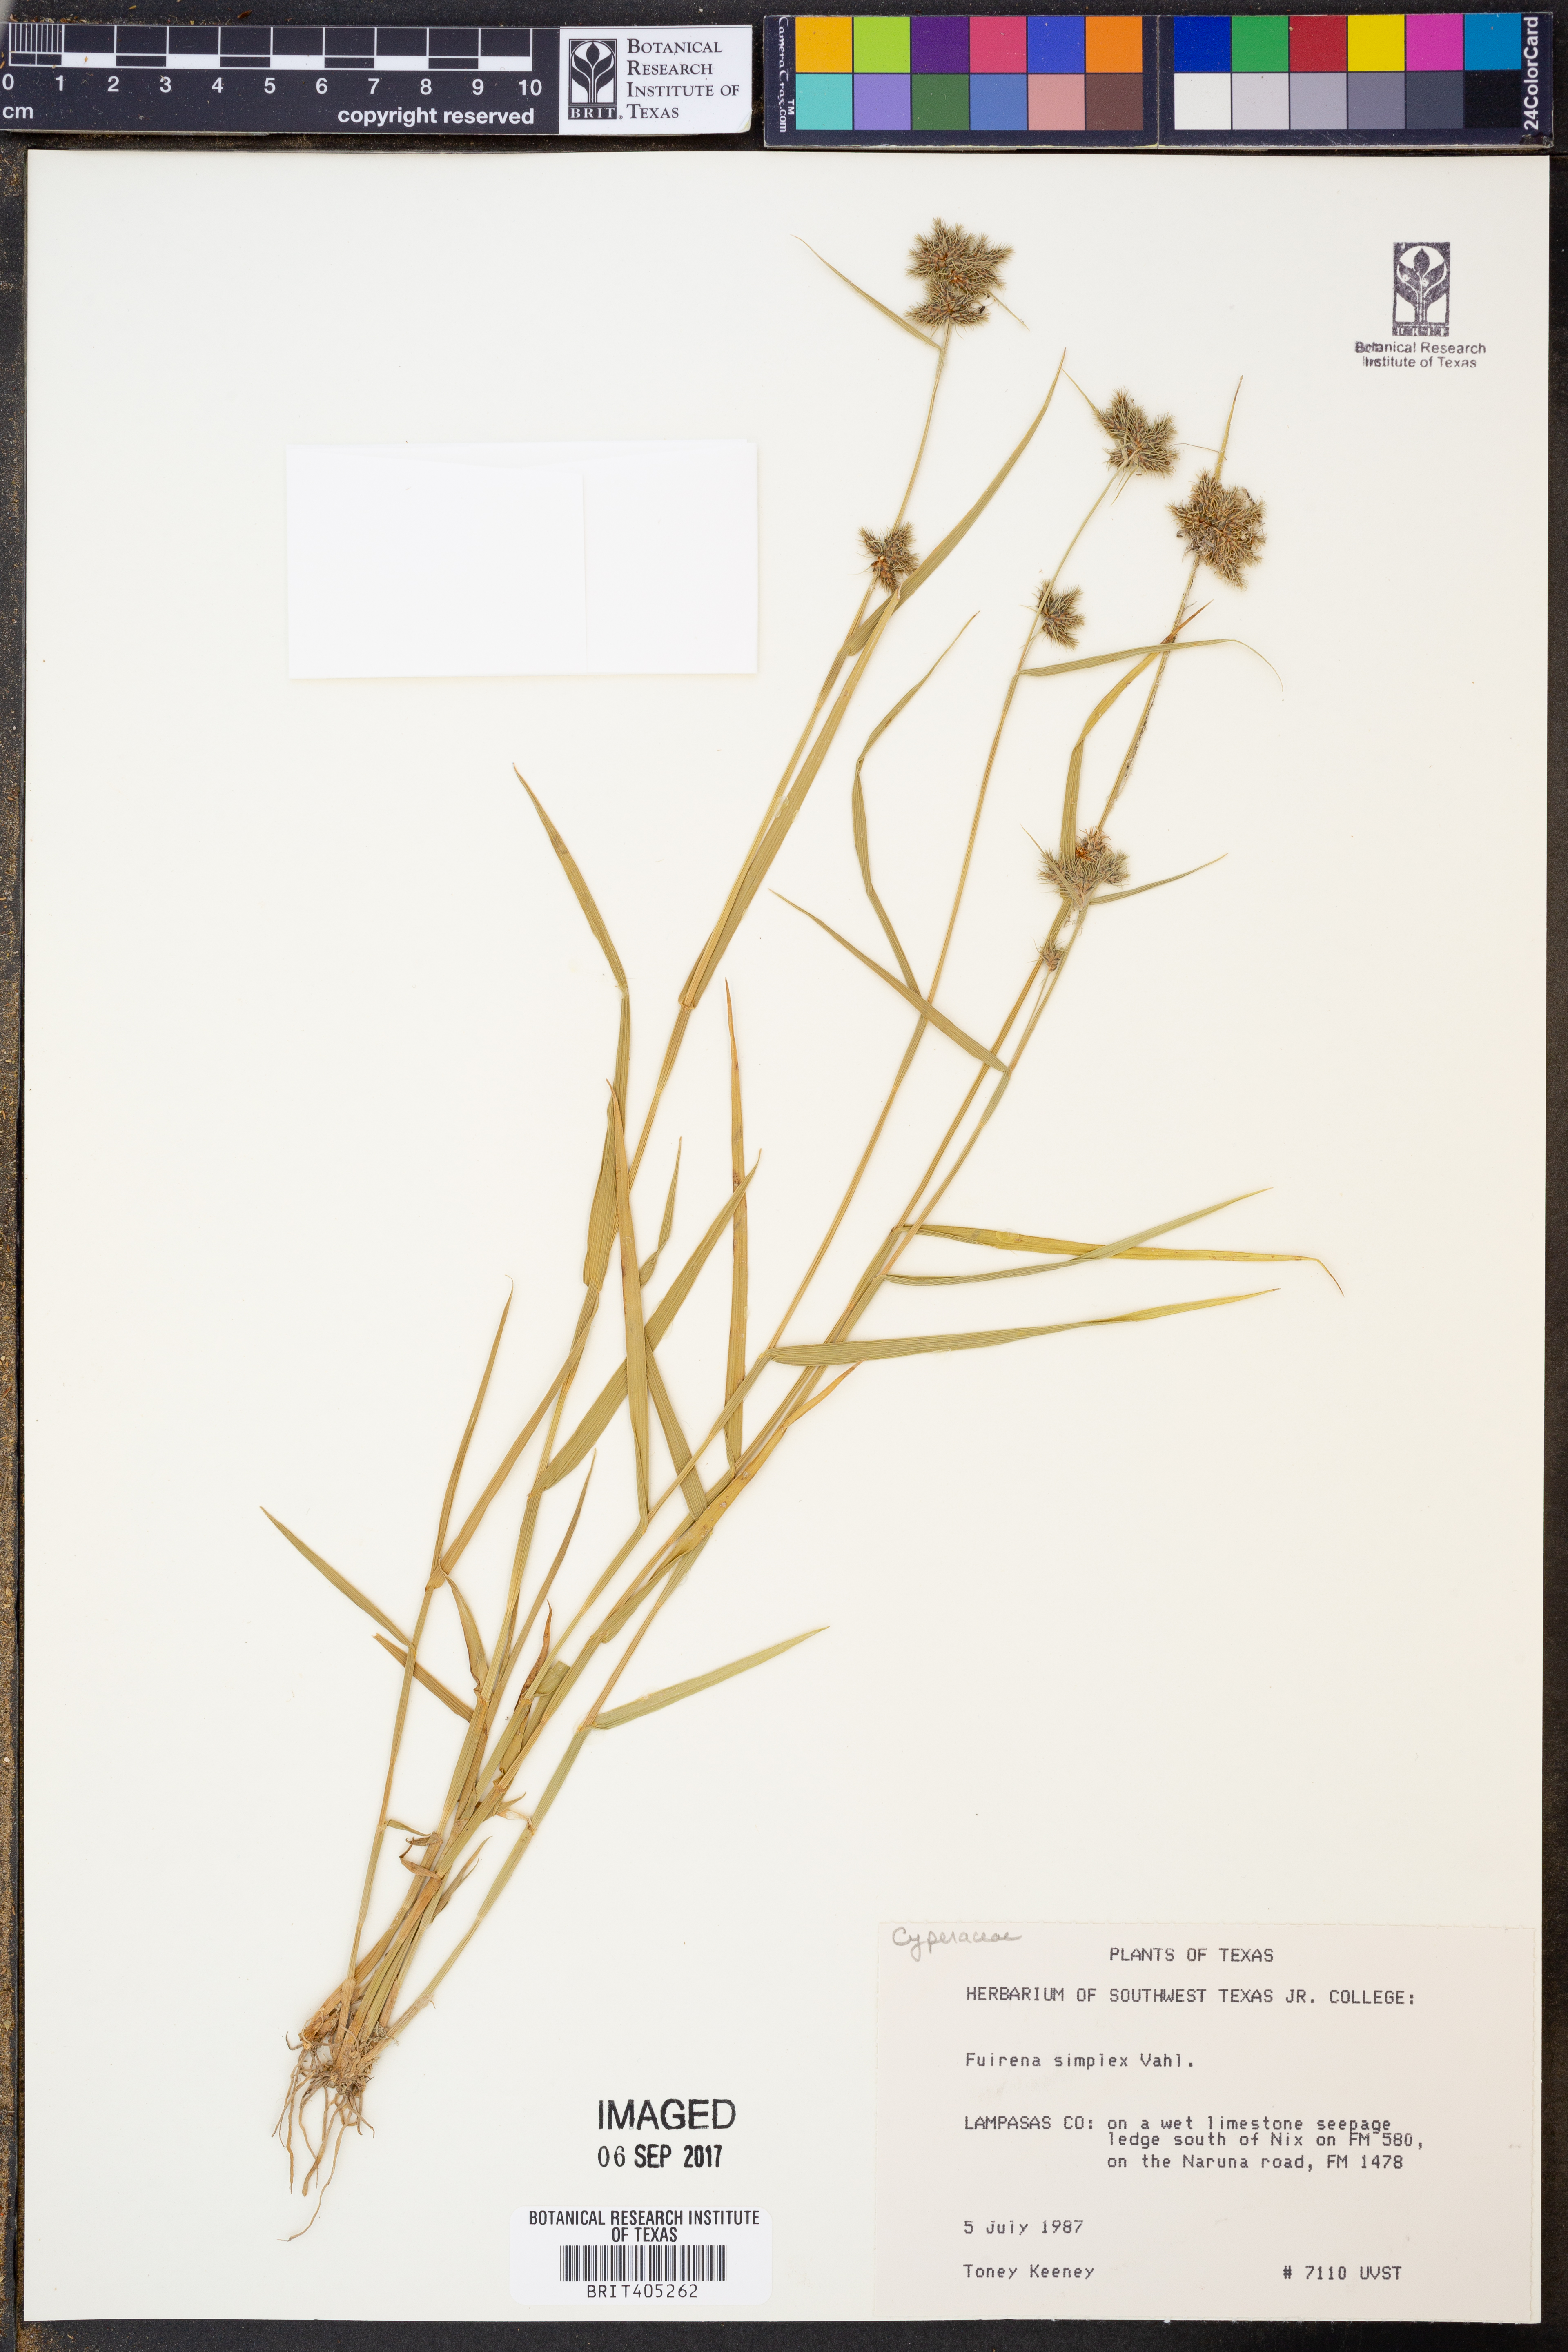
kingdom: Plantae
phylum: Tracheophyta
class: Liliopsida
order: Poales
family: Cyperaceae
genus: Fuirena
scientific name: Fuirena simplex
